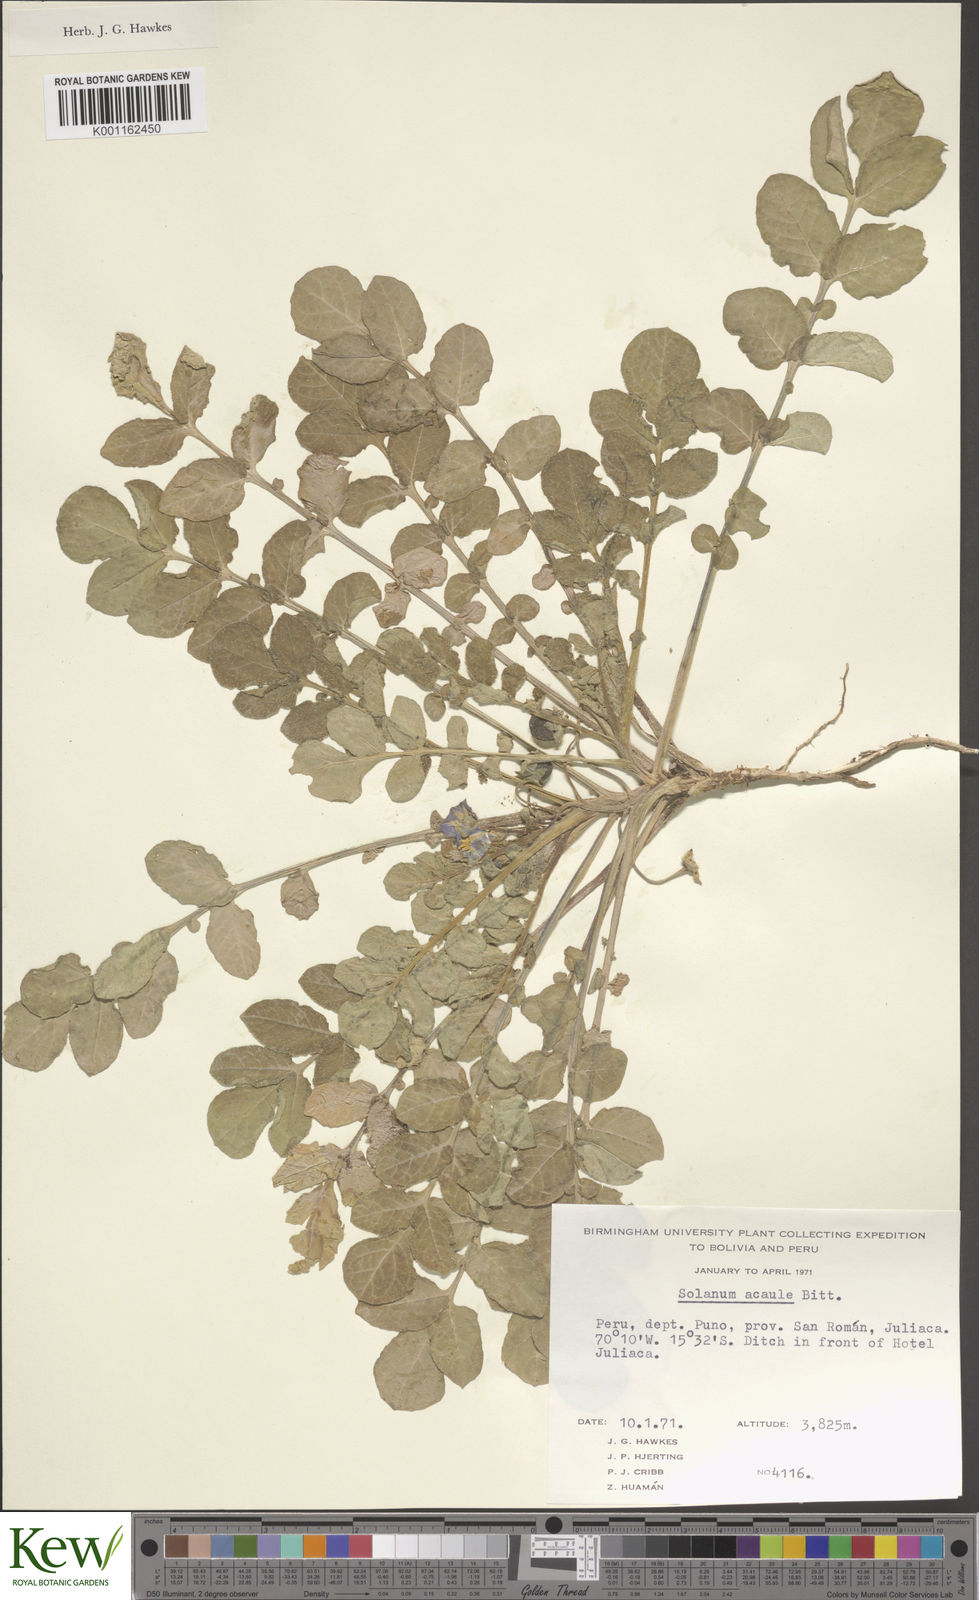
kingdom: Plantae
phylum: Tracheophyta
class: Magnoliopsida
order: Solanales
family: Solanaceae
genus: Solanum
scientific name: Solanum acaule
